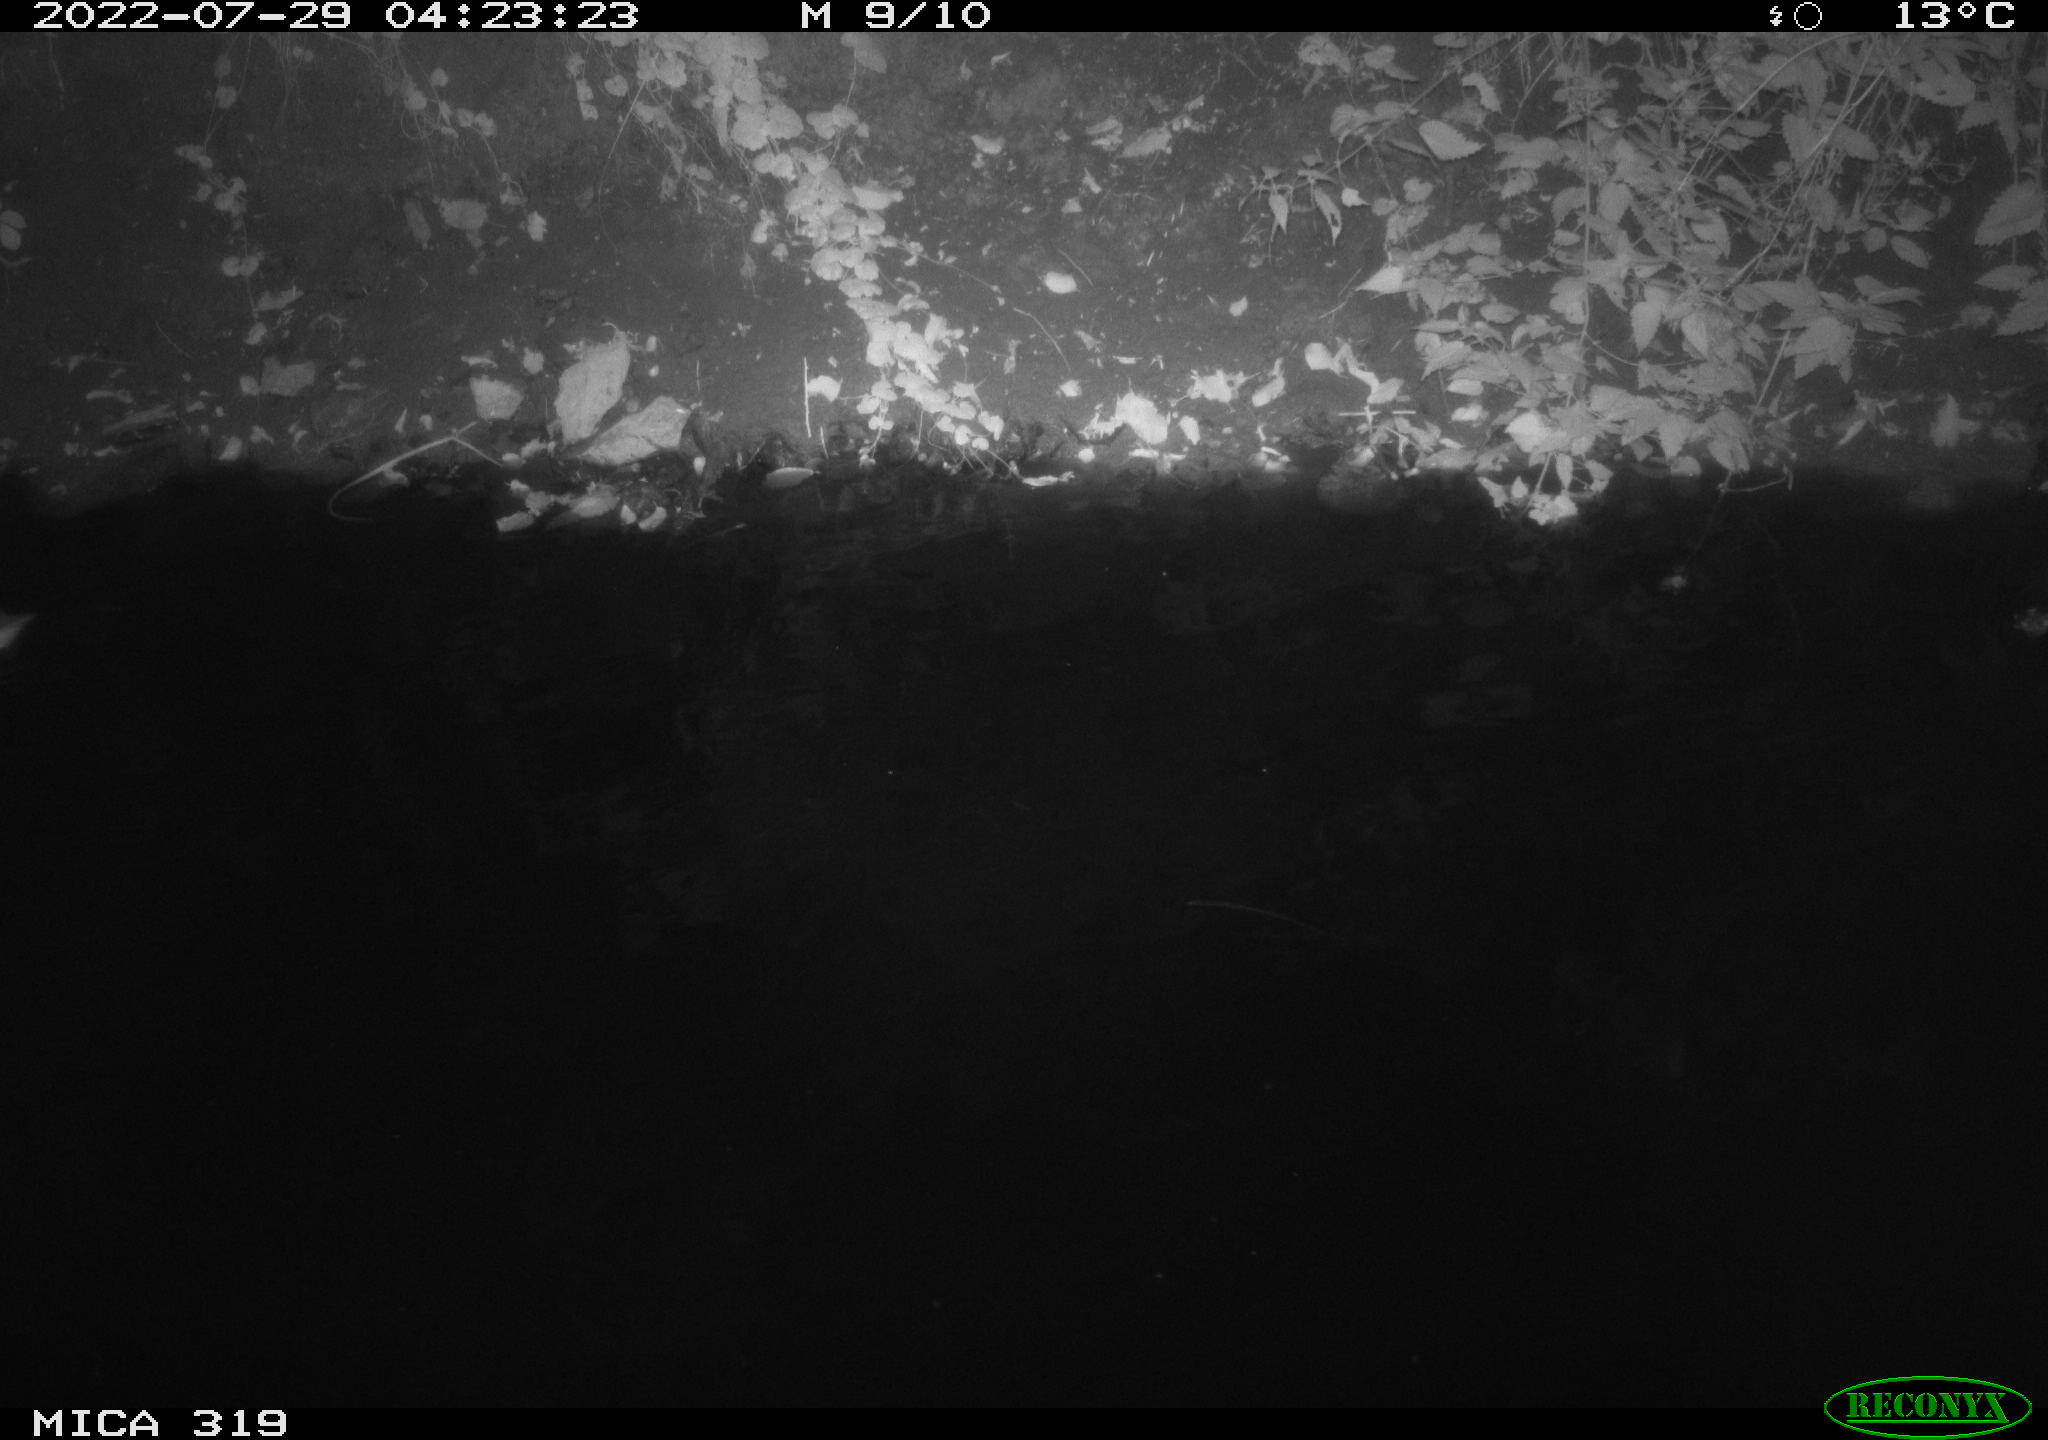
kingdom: Animalia
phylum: Chordata
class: Aves
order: Anseriformes
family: Anatidae
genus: Anas
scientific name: Anas
